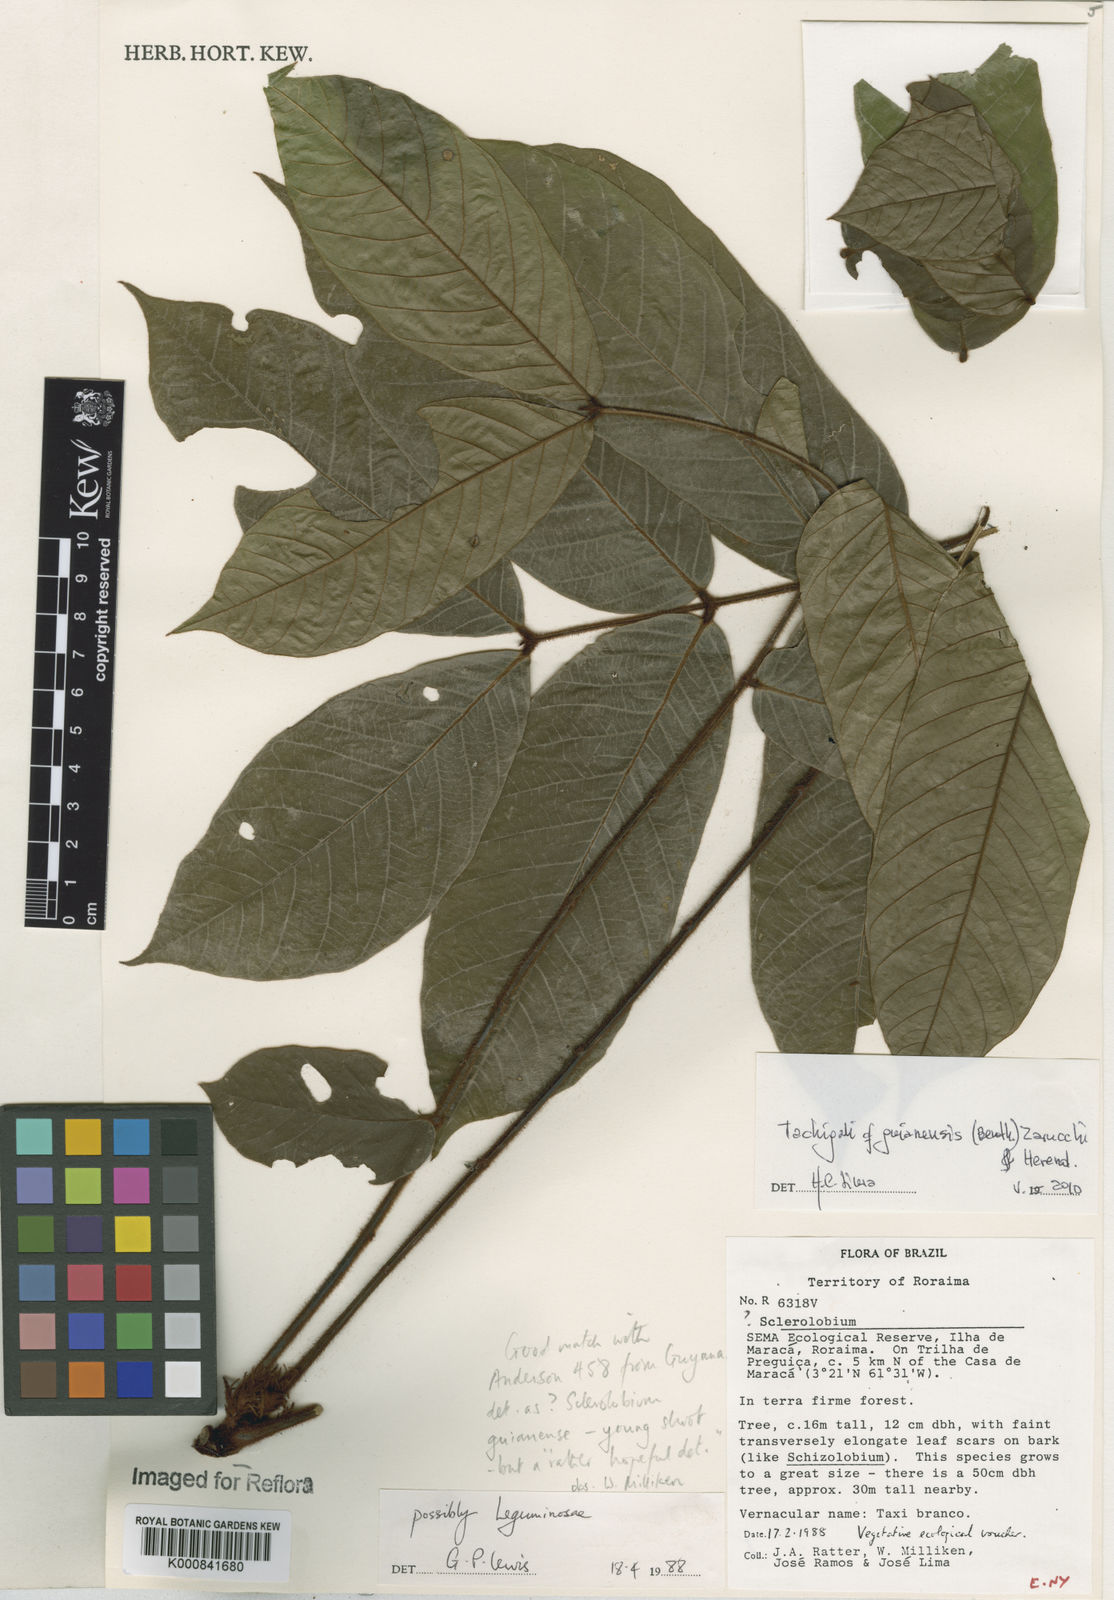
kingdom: Plantae
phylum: Tracheophyta
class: Magnoliopsida
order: Fabales
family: Fabaceae
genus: Tachigali
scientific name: Tachigali guianensis
